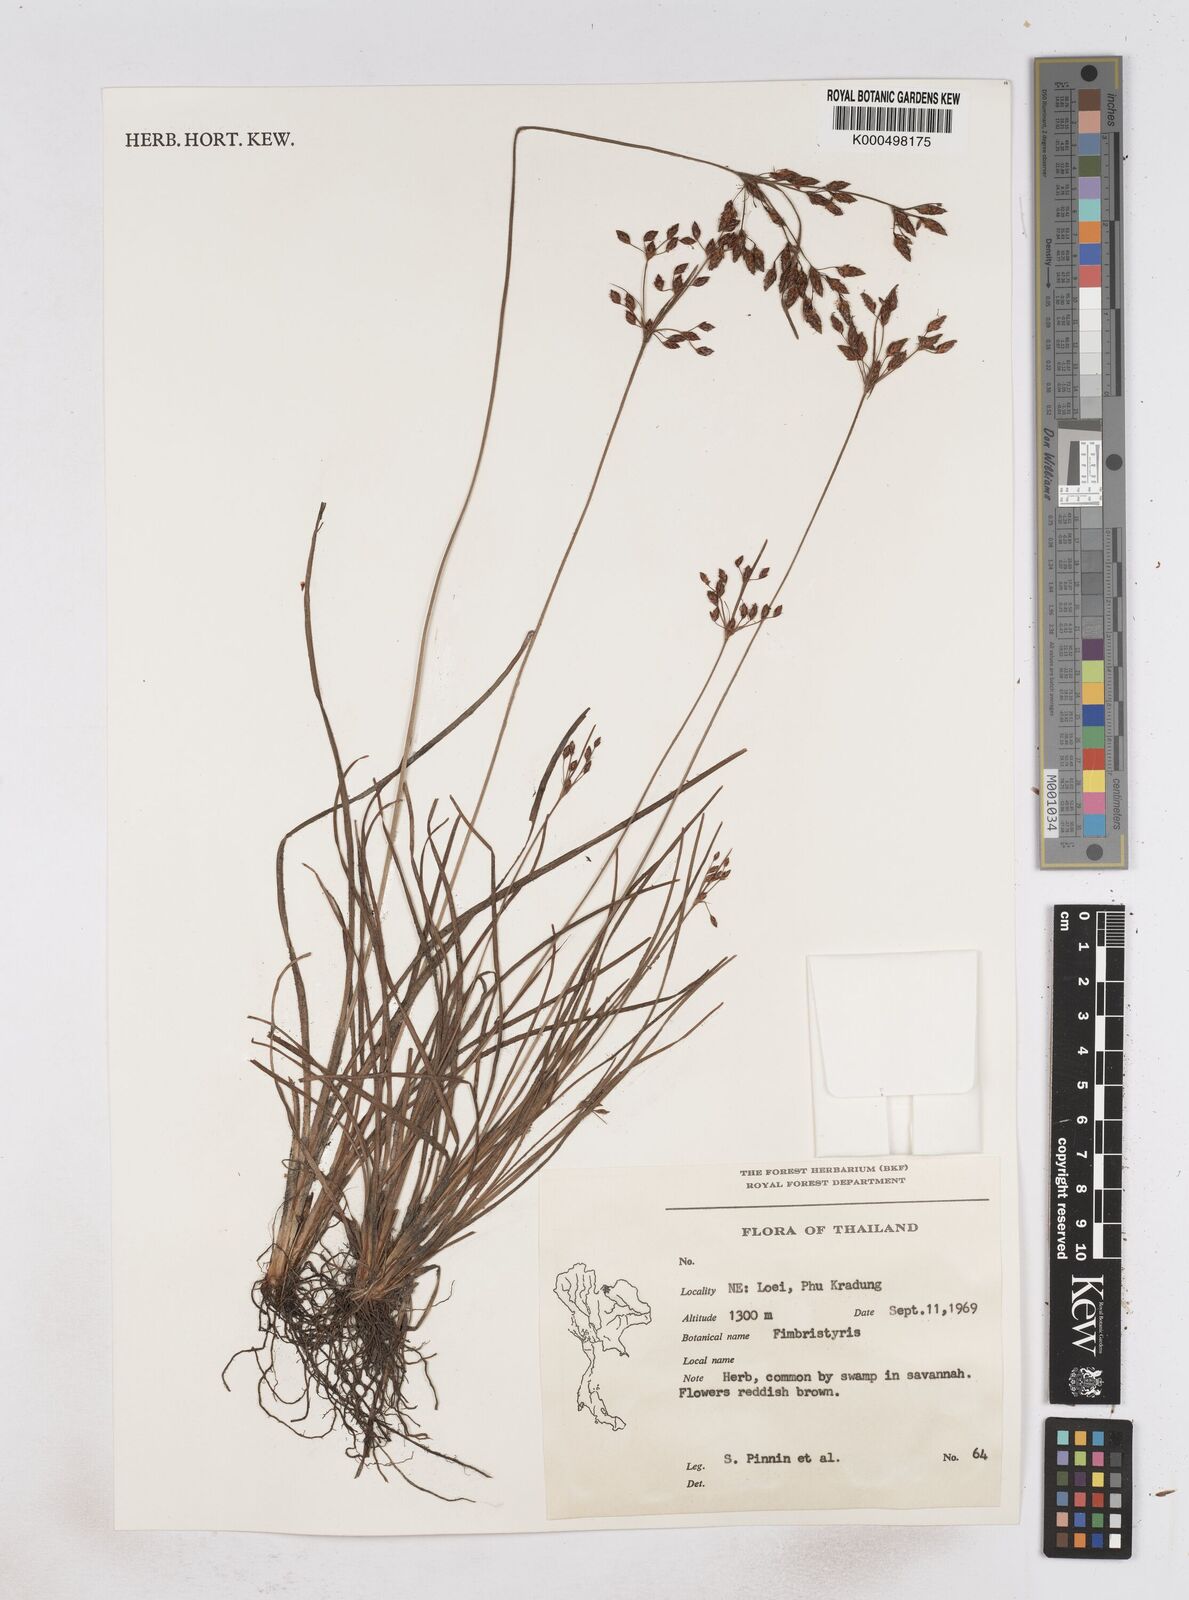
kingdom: Plantae
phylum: Tracheophyta
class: Liliopsida
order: Poales
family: Cyperaceae
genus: Fimbristylis
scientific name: Fimbristylis dichotoma
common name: Forked fimbry
